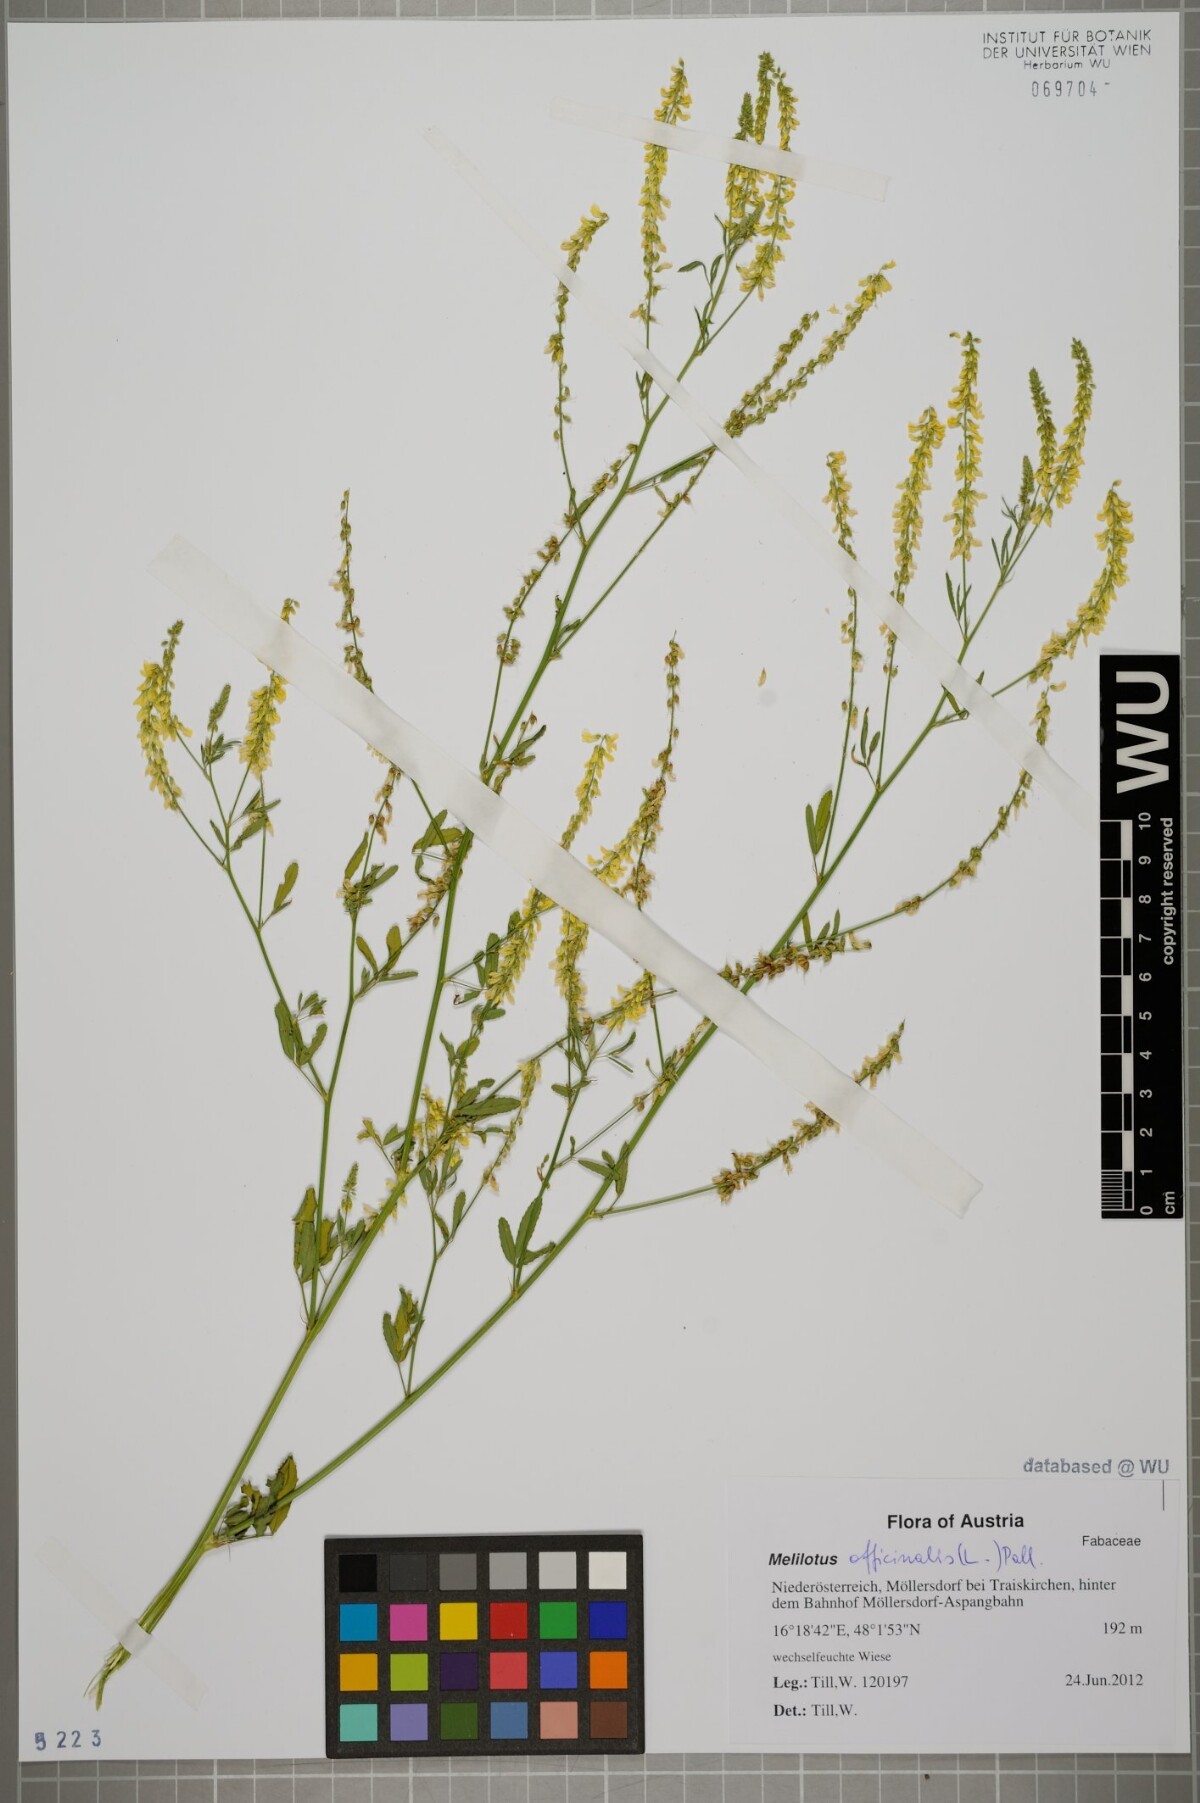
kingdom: Plantae
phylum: Tracheophyta
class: Magnoliopsida
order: Fabales
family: Fabaceae
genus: Melilotus
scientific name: Melilotus officinalis
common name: Sweetclover
